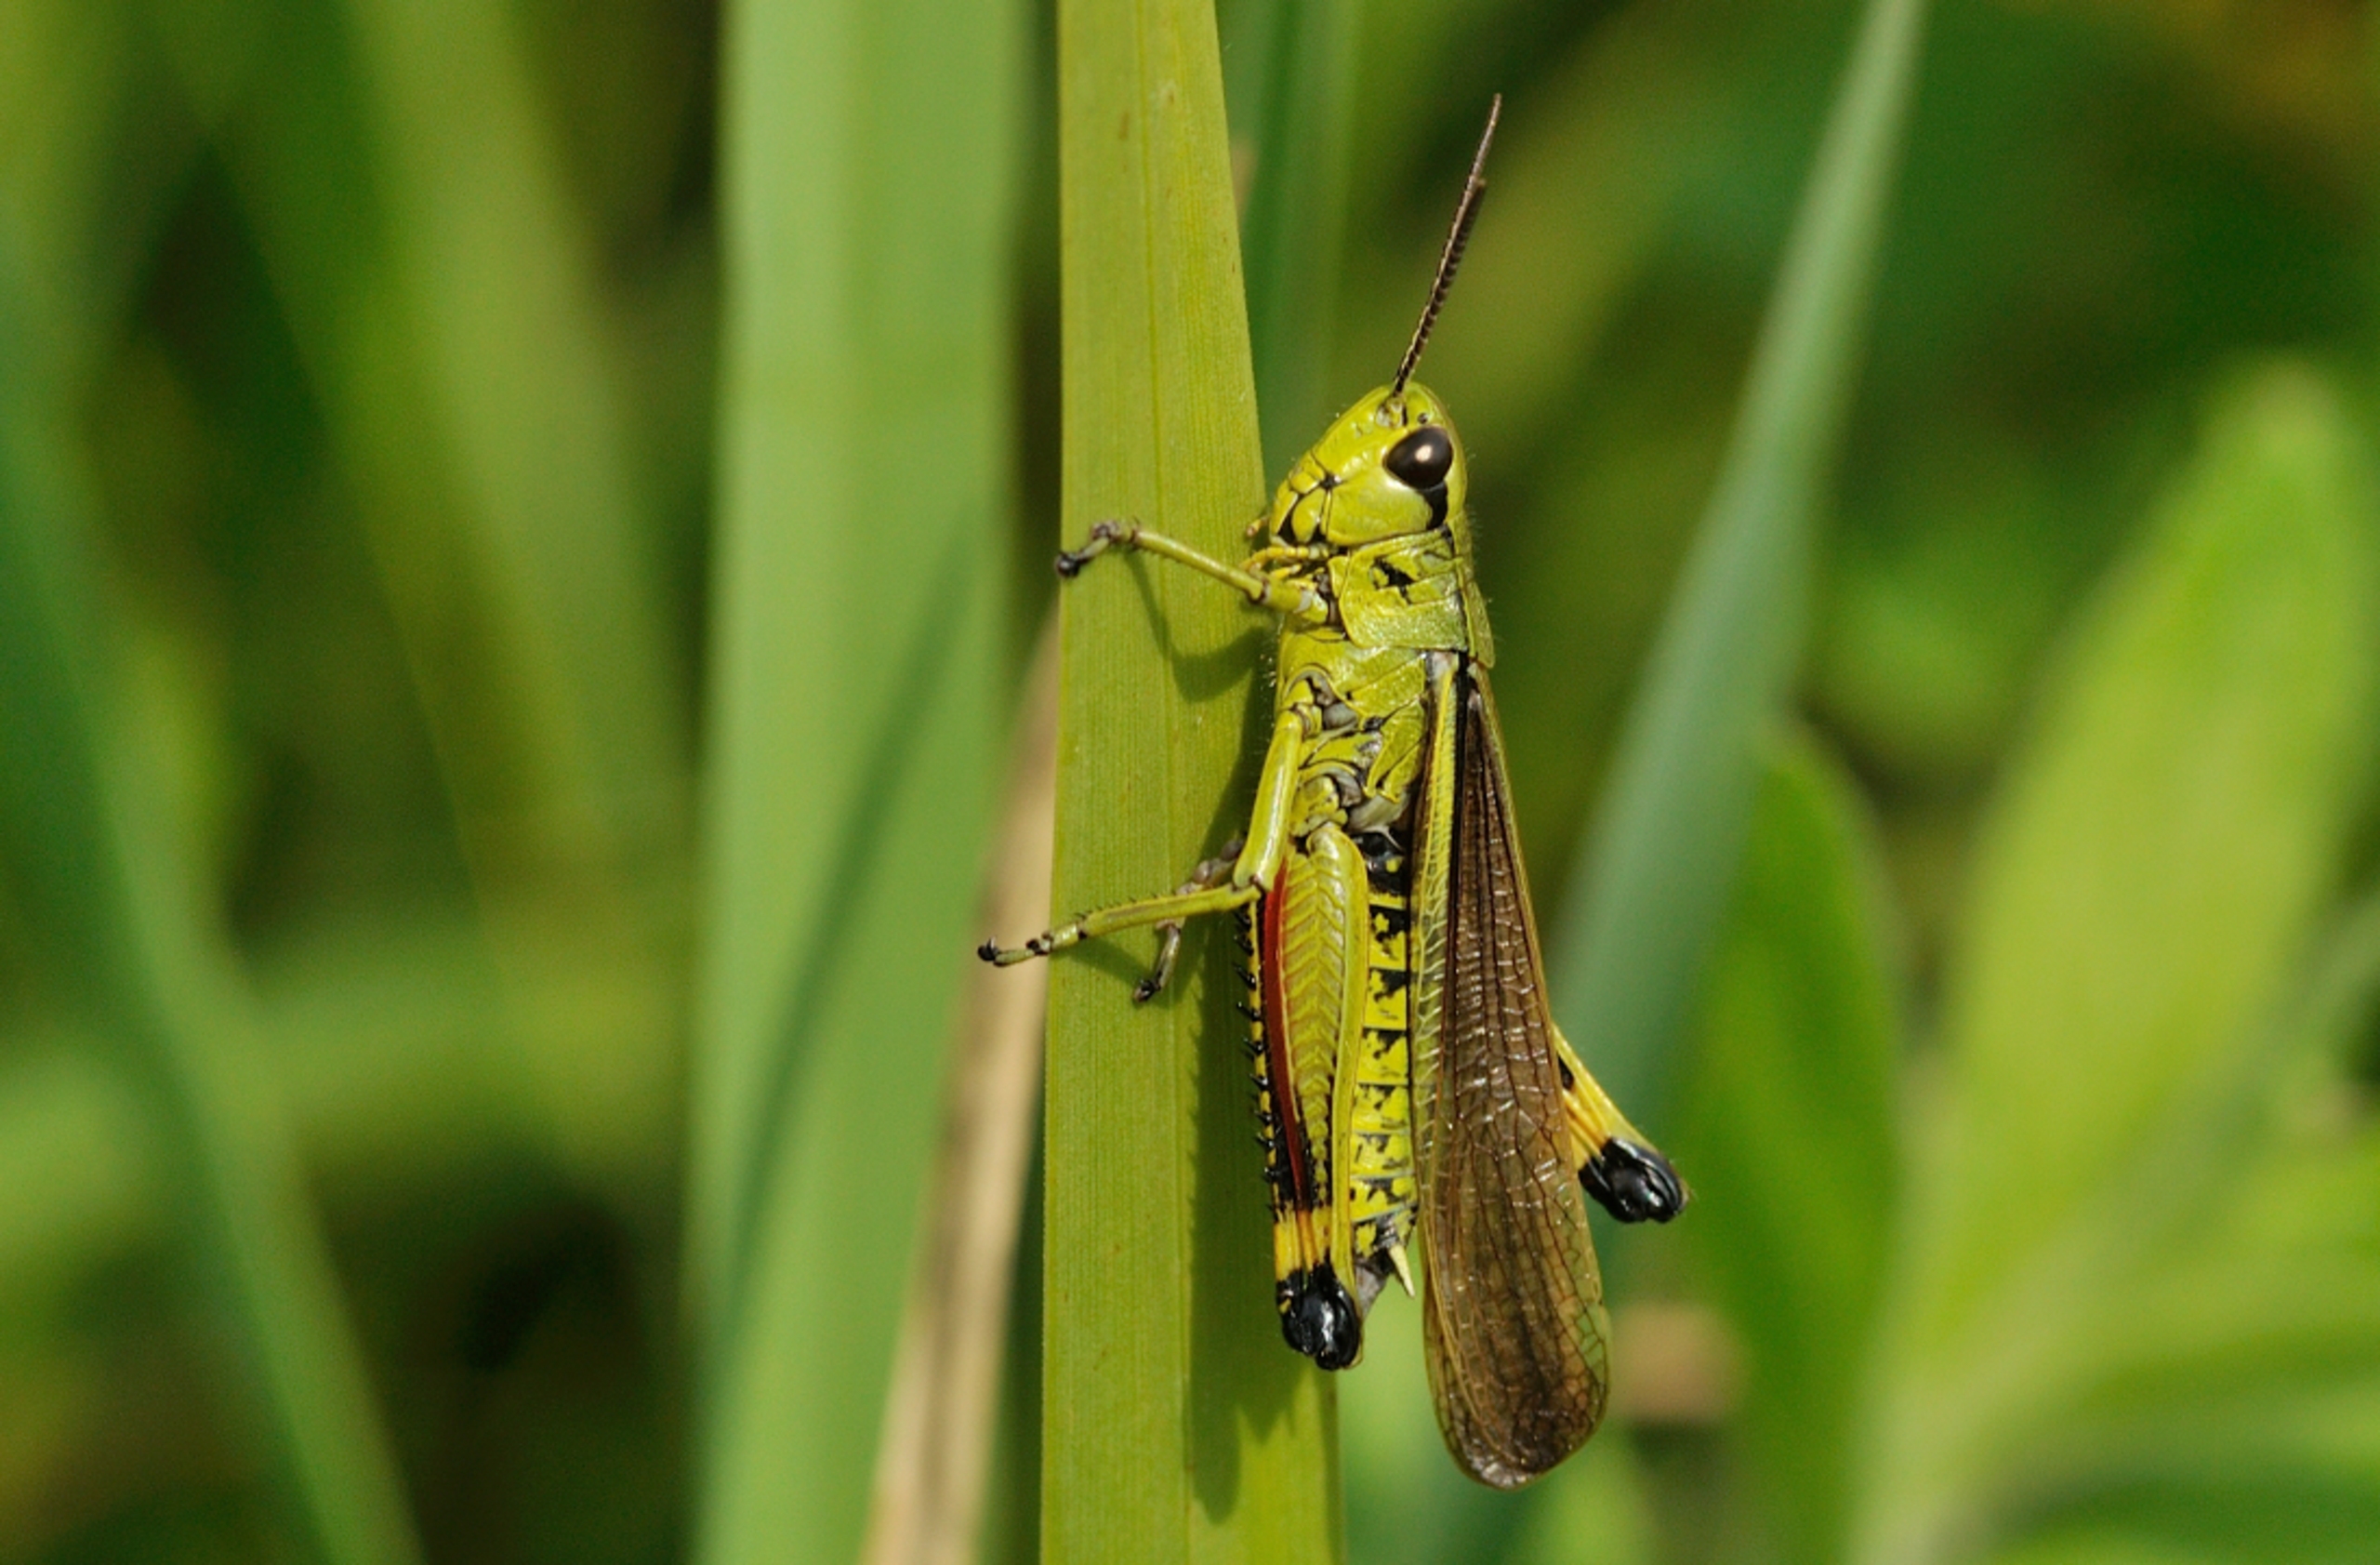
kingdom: Animalia
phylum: Arthropoda
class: Insecta
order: Orthoptera
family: Acrididae
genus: Stethophyma
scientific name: Stethophyma grossum
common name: Sumpgræshoppe
